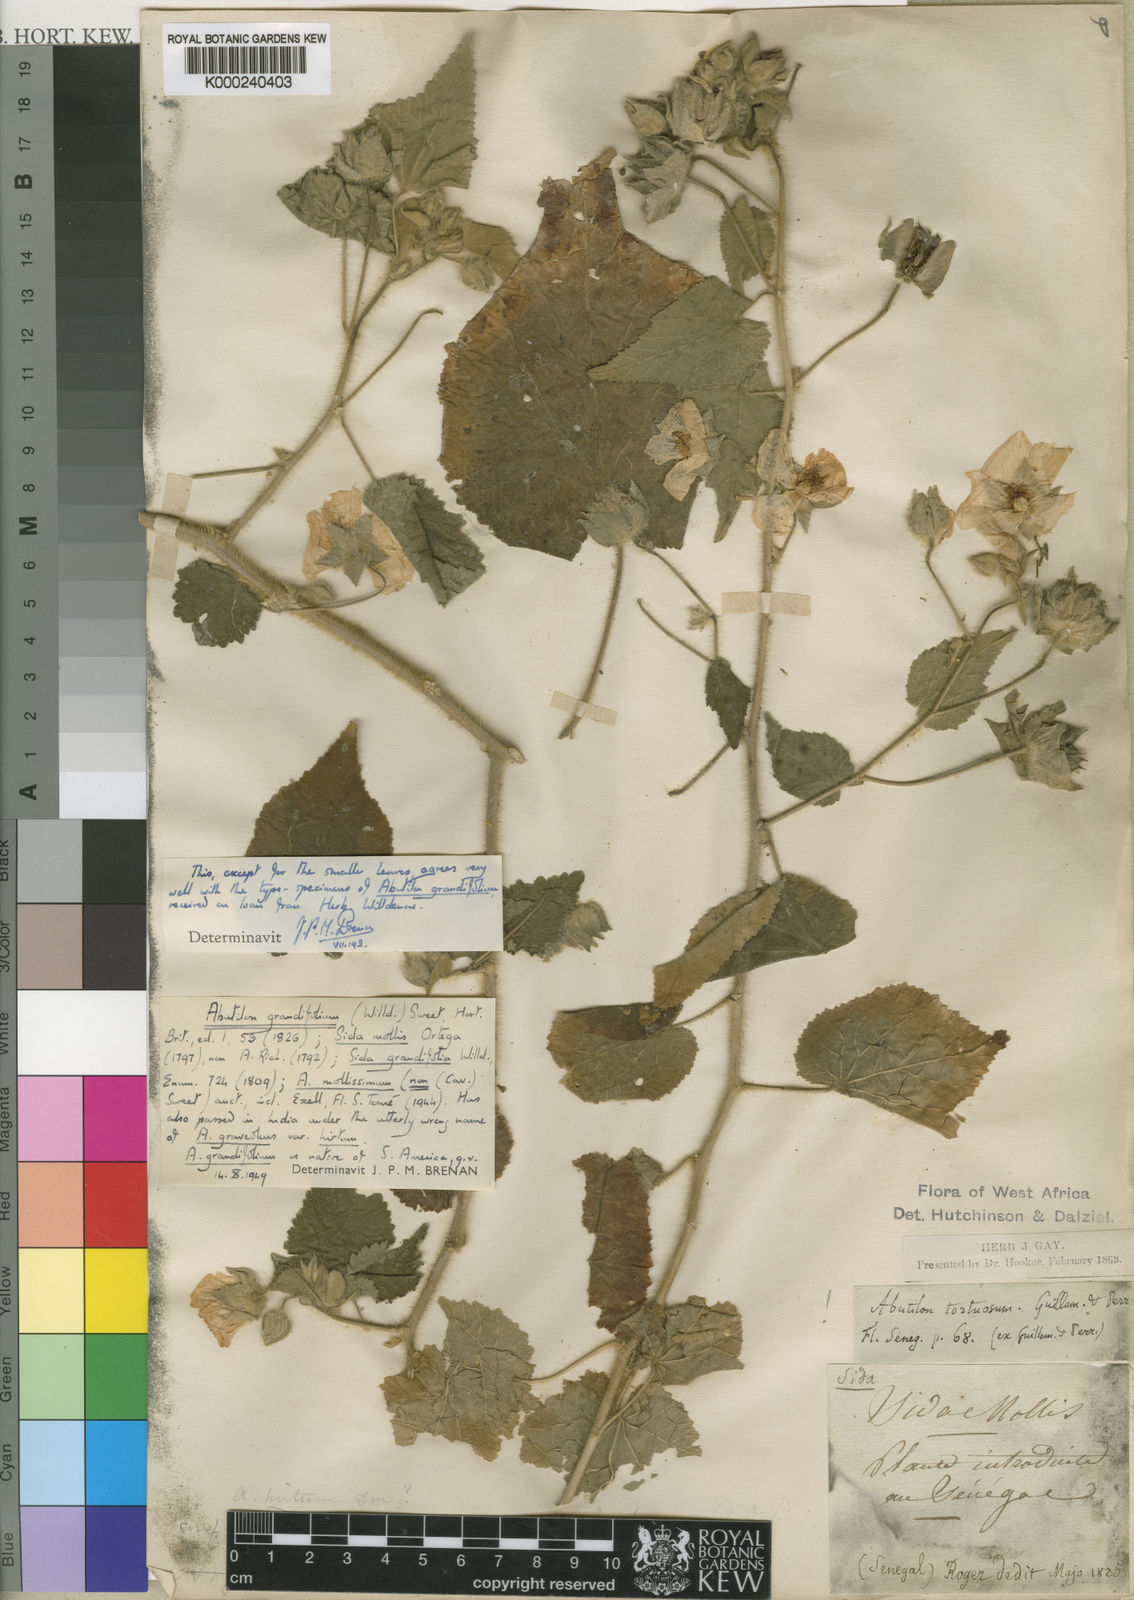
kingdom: Plantae
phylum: Tracheophyta
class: Magnoliopsida
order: Malvales
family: Malvaceae
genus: Abutilon
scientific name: Abutilon grandifolium
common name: Hairy abutilon
